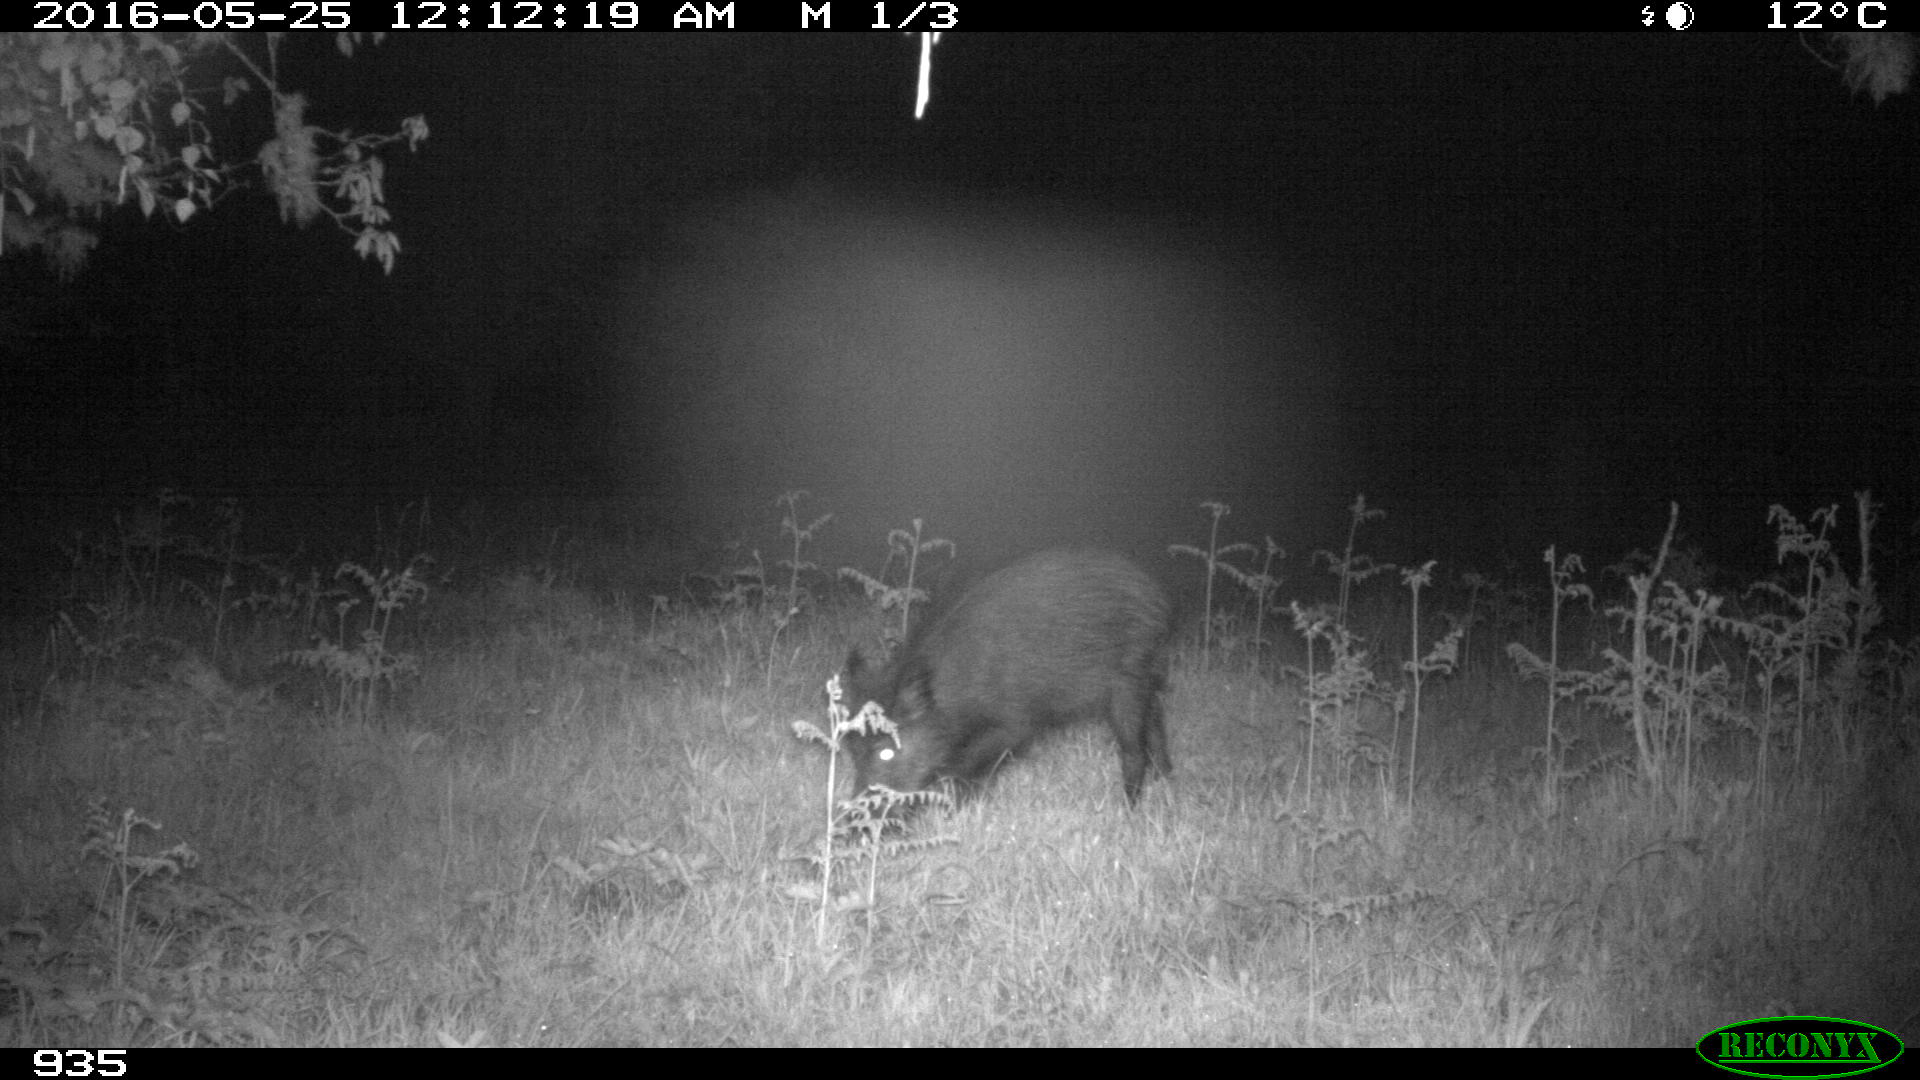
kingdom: Animalia
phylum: Chordata
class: Mammalia
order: Artiodactyla
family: Suidae
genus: Sus
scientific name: Sus scrofa
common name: Wild boar
